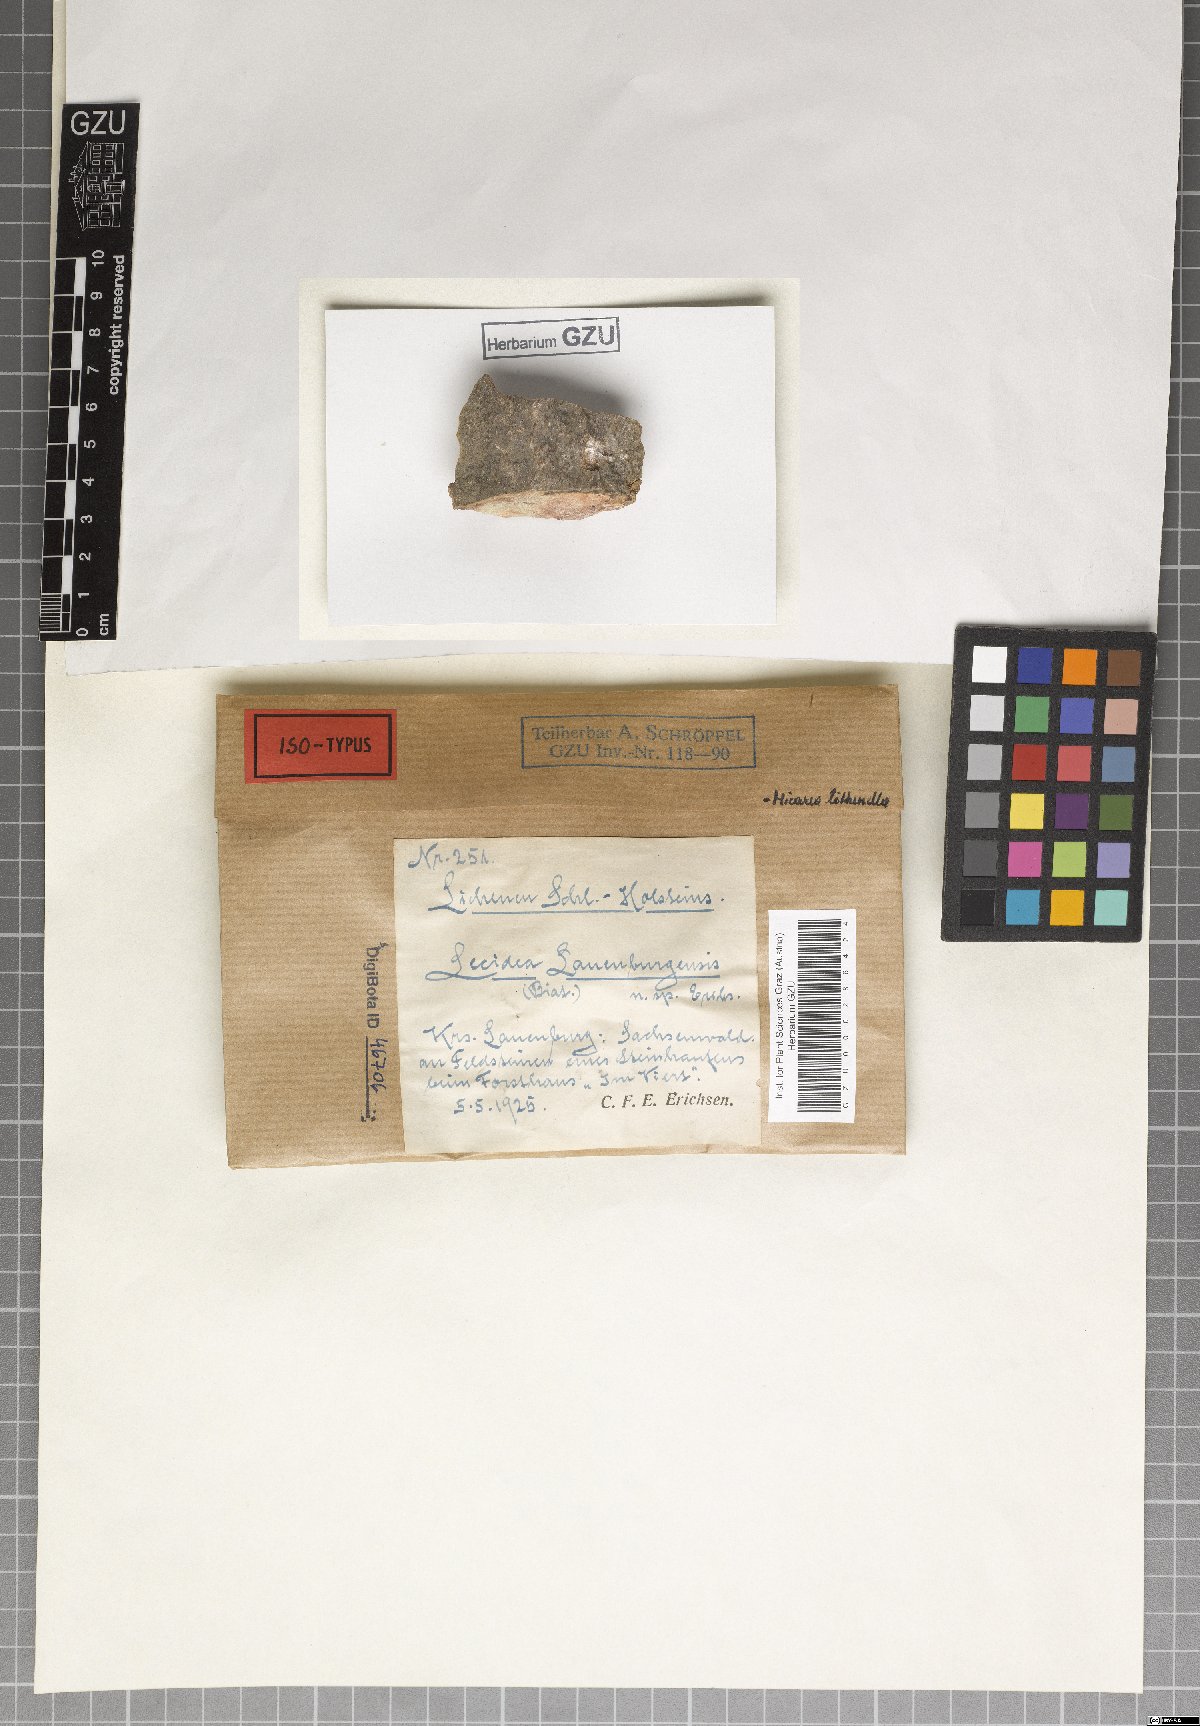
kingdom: Fungi
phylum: Ascomycota
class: Lecanoromycetes
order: Lecanorales
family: Byssolomataceae
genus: Micarea
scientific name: Micarea lithinella
